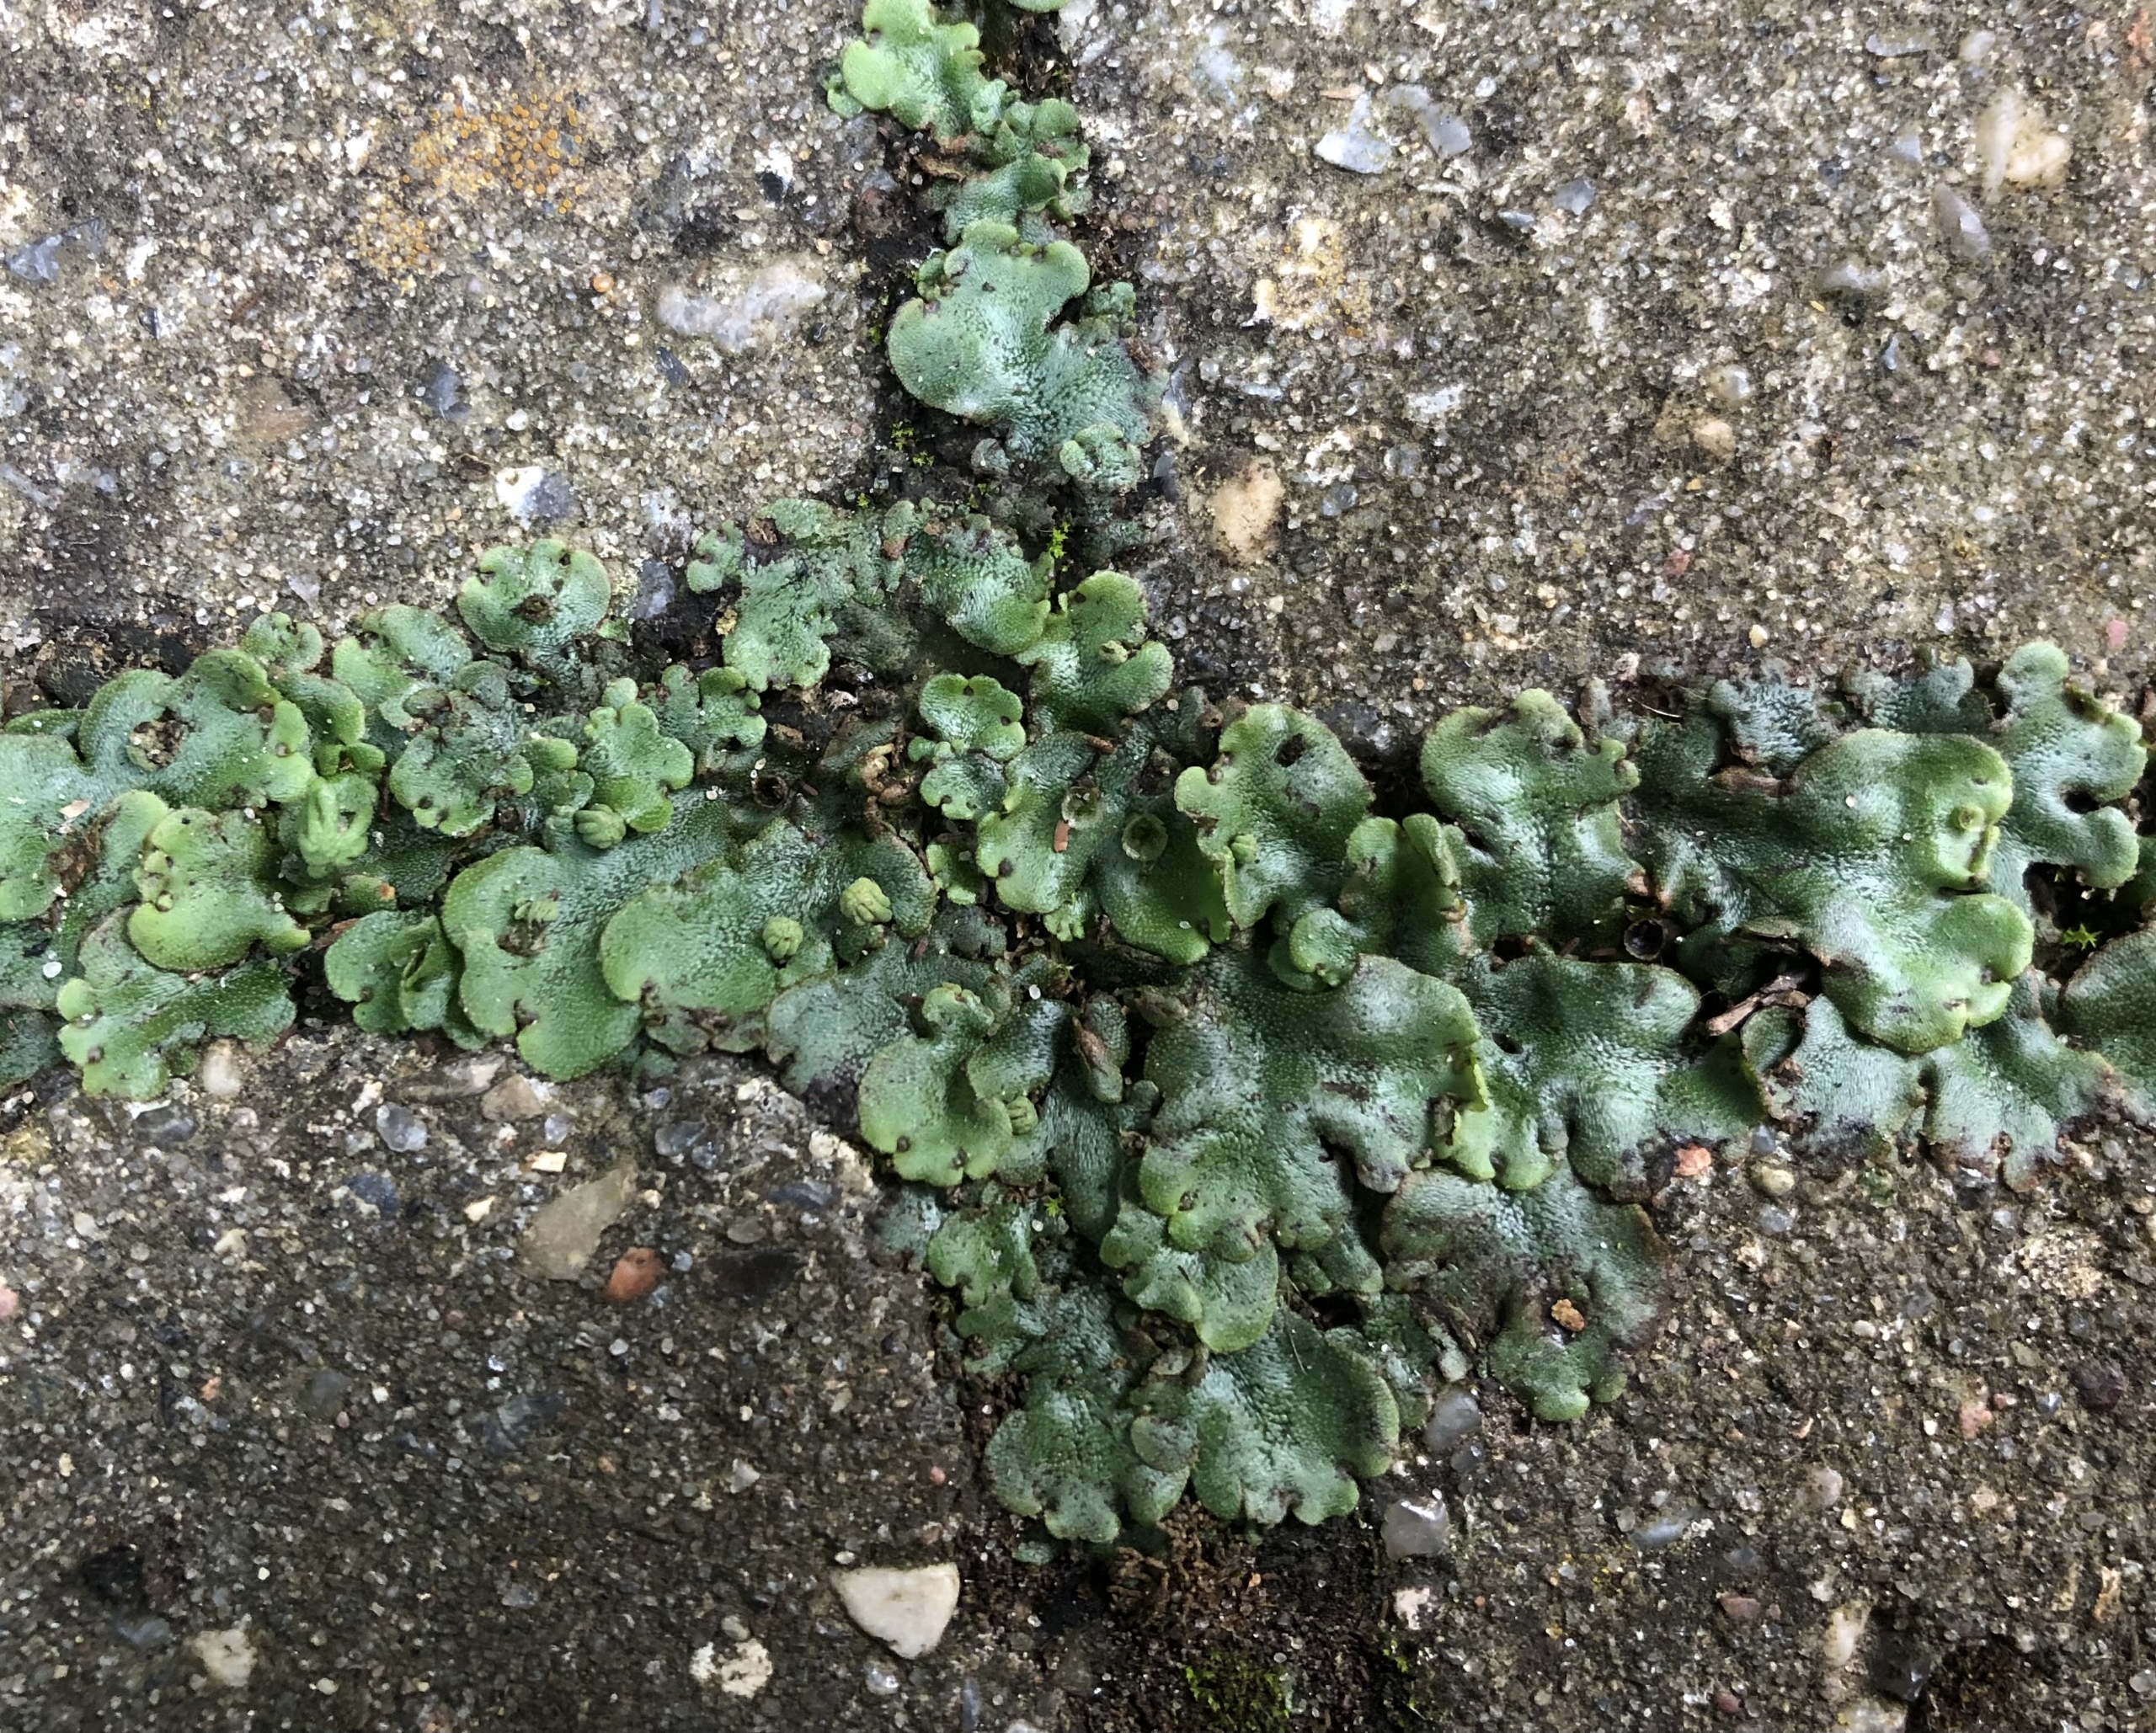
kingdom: Plantae
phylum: Marchantiophyta
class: Marchantiopsida
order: Marchantiales
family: Marchantiaceae
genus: Marchantia
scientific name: Marchantia polymorpha
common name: Almindelig lungemos (underart)
